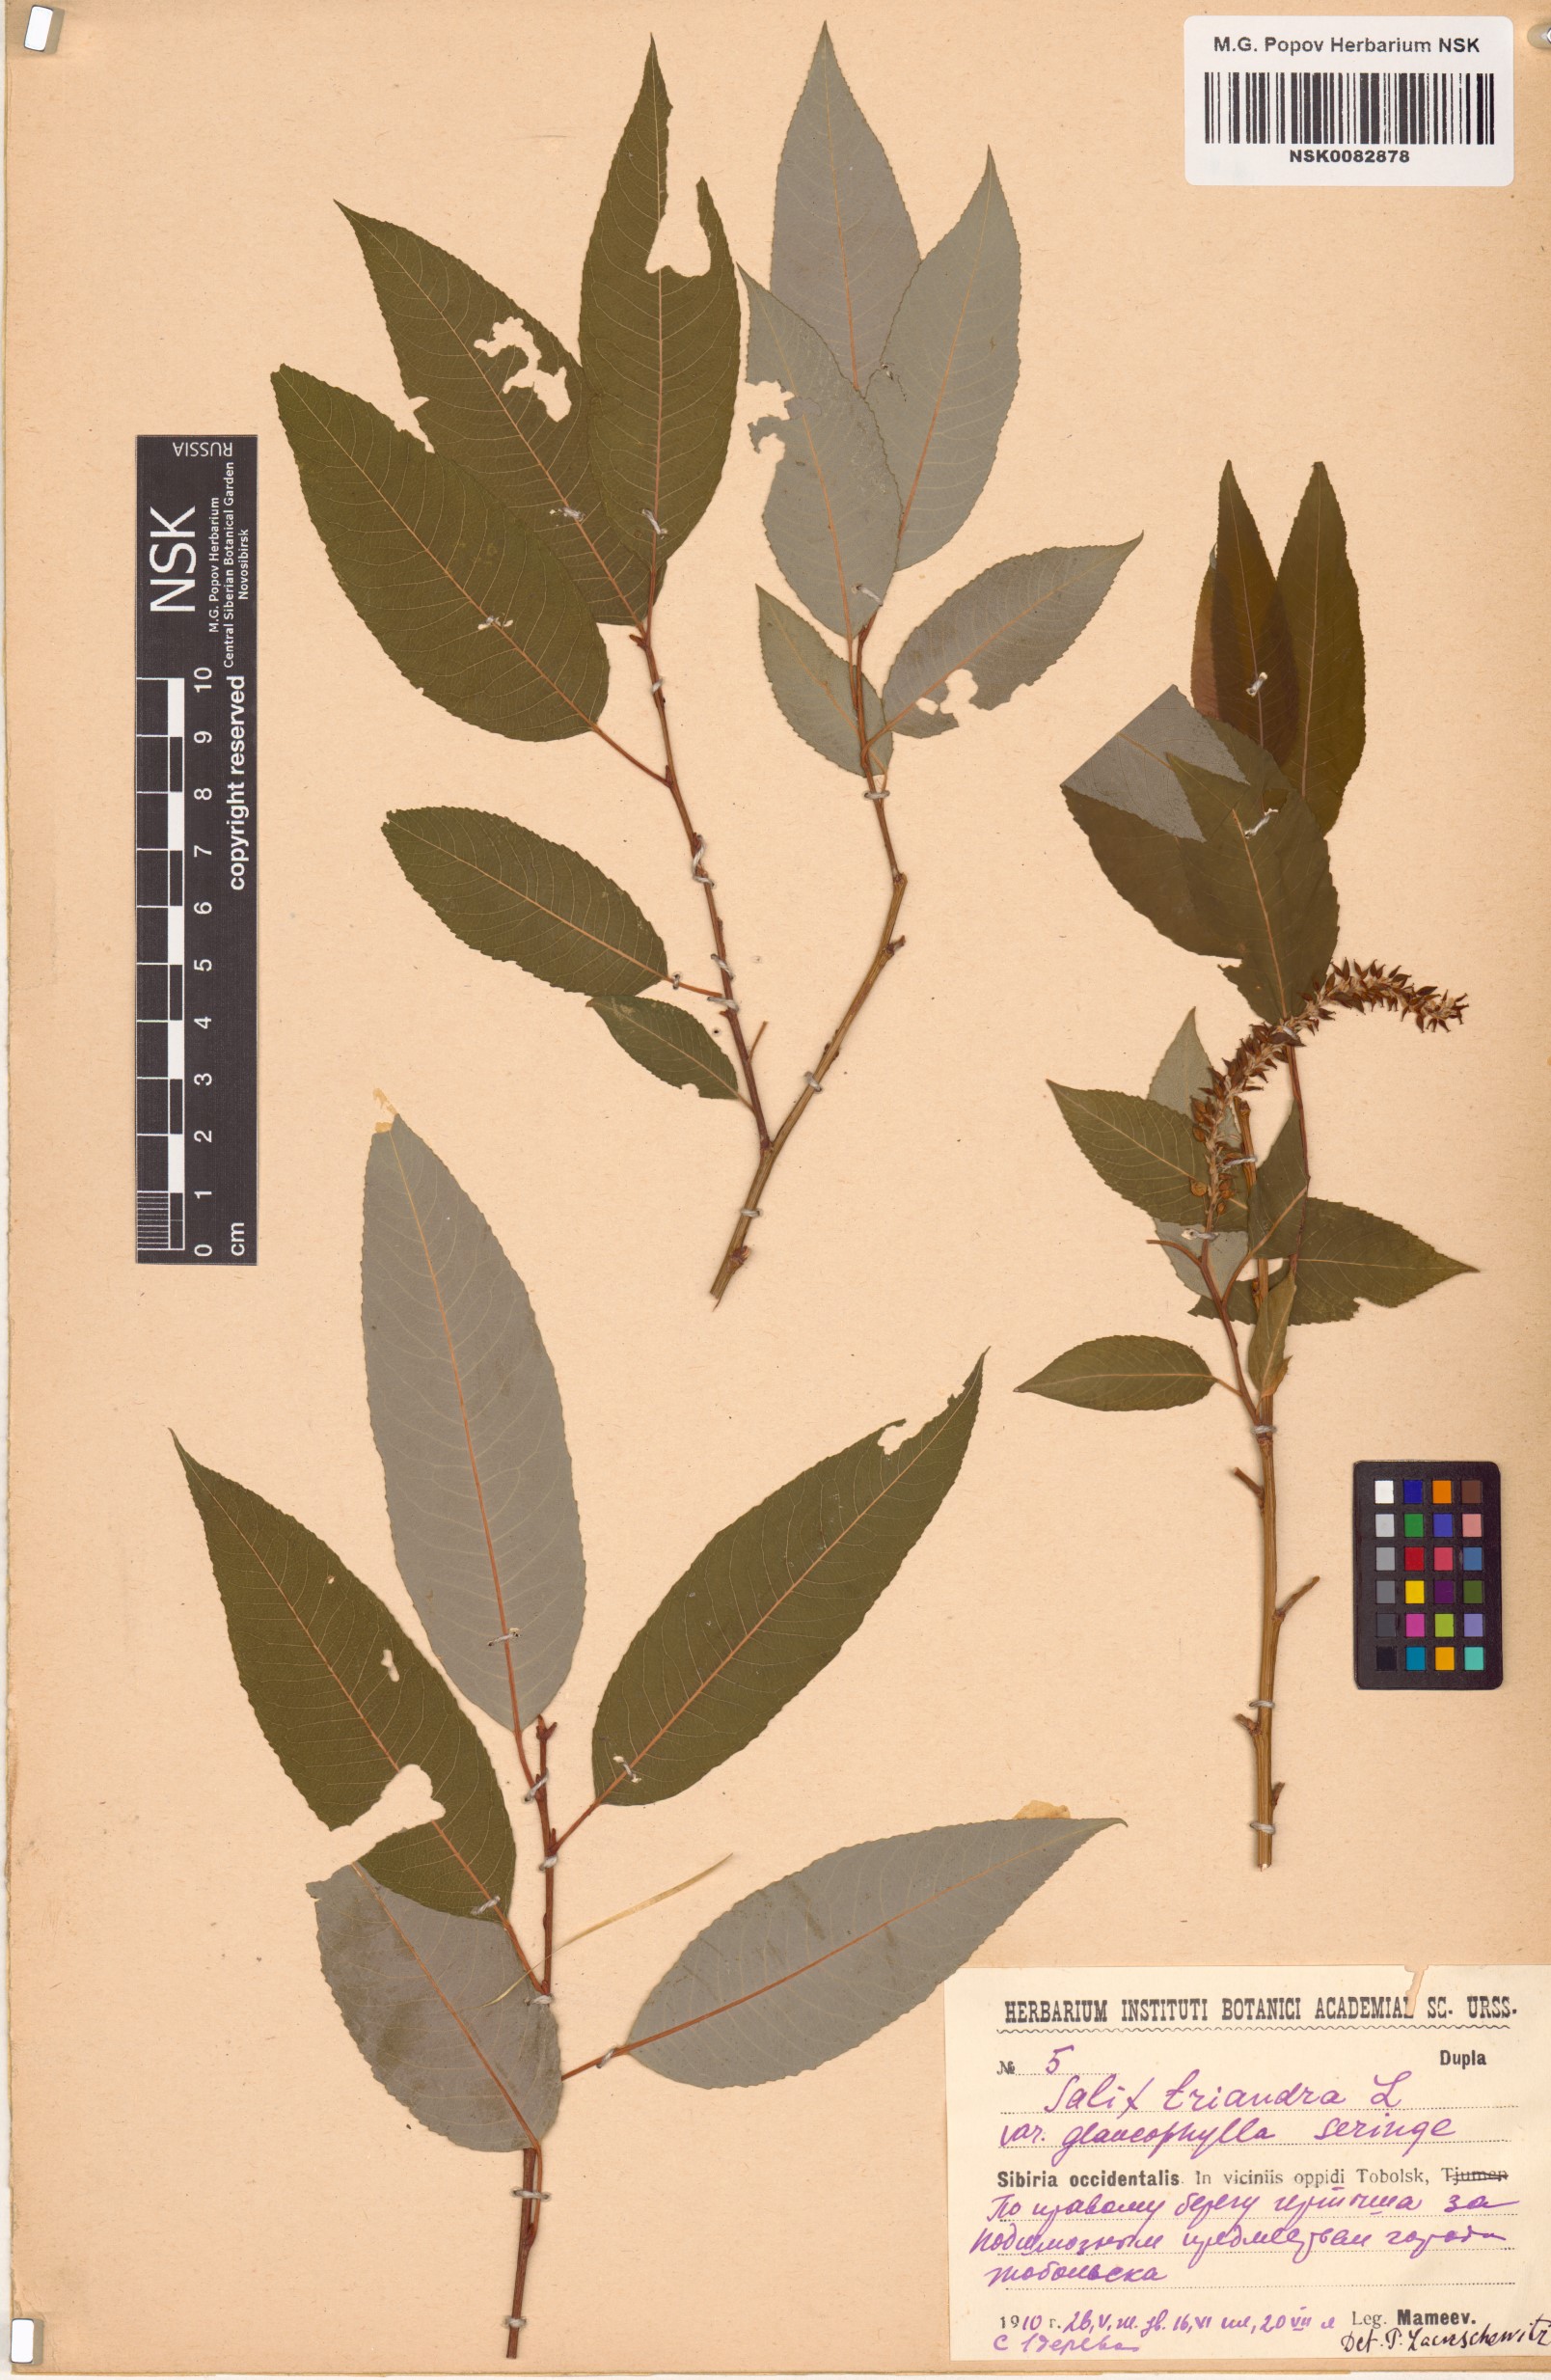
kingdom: Plantae
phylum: Tracheophyta
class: Magnoliopsida
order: Malpighiales
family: Salicaceae
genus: Salix
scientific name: Salix triandra
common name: Almond willow
